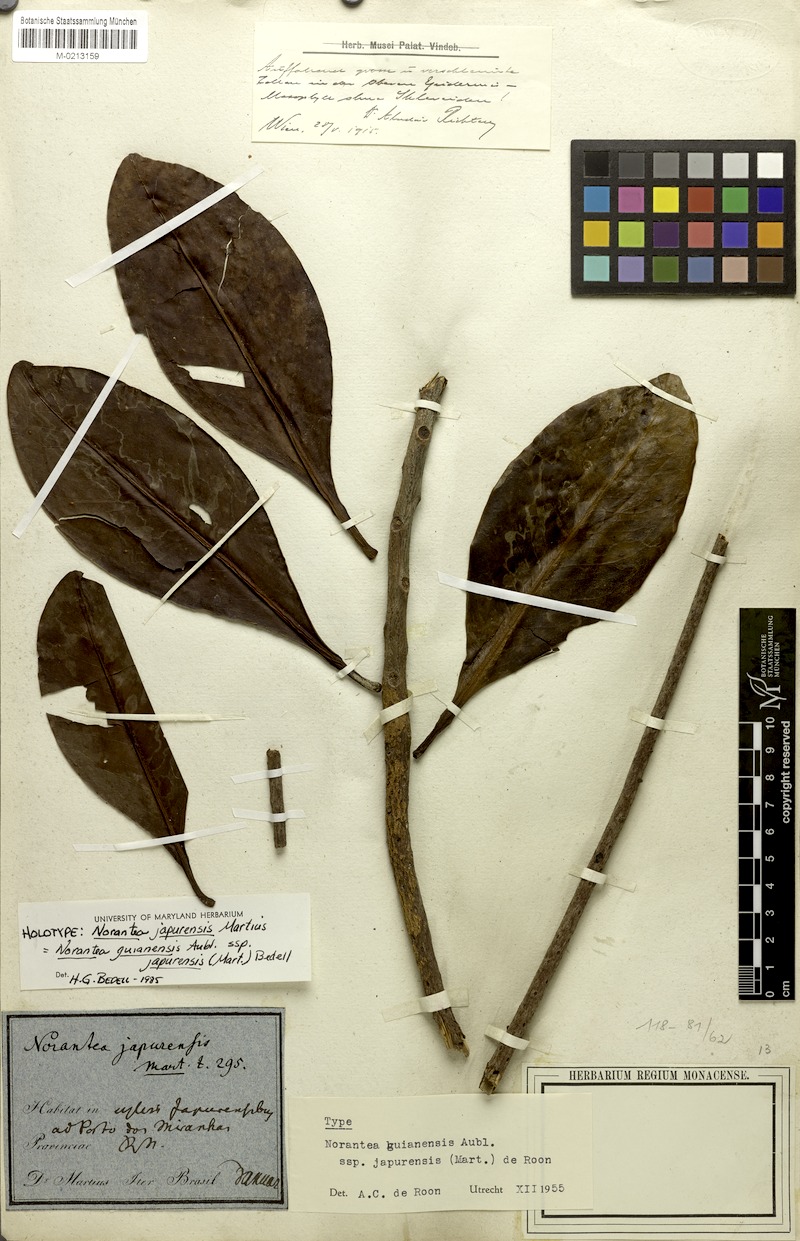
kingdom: Plantae
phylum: Tracheophyta
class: Magnoliopsida
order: Ericales
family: Marcgraviaceae
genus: Norantea
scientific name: Norantea guianensis
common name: Red hot poker vine
